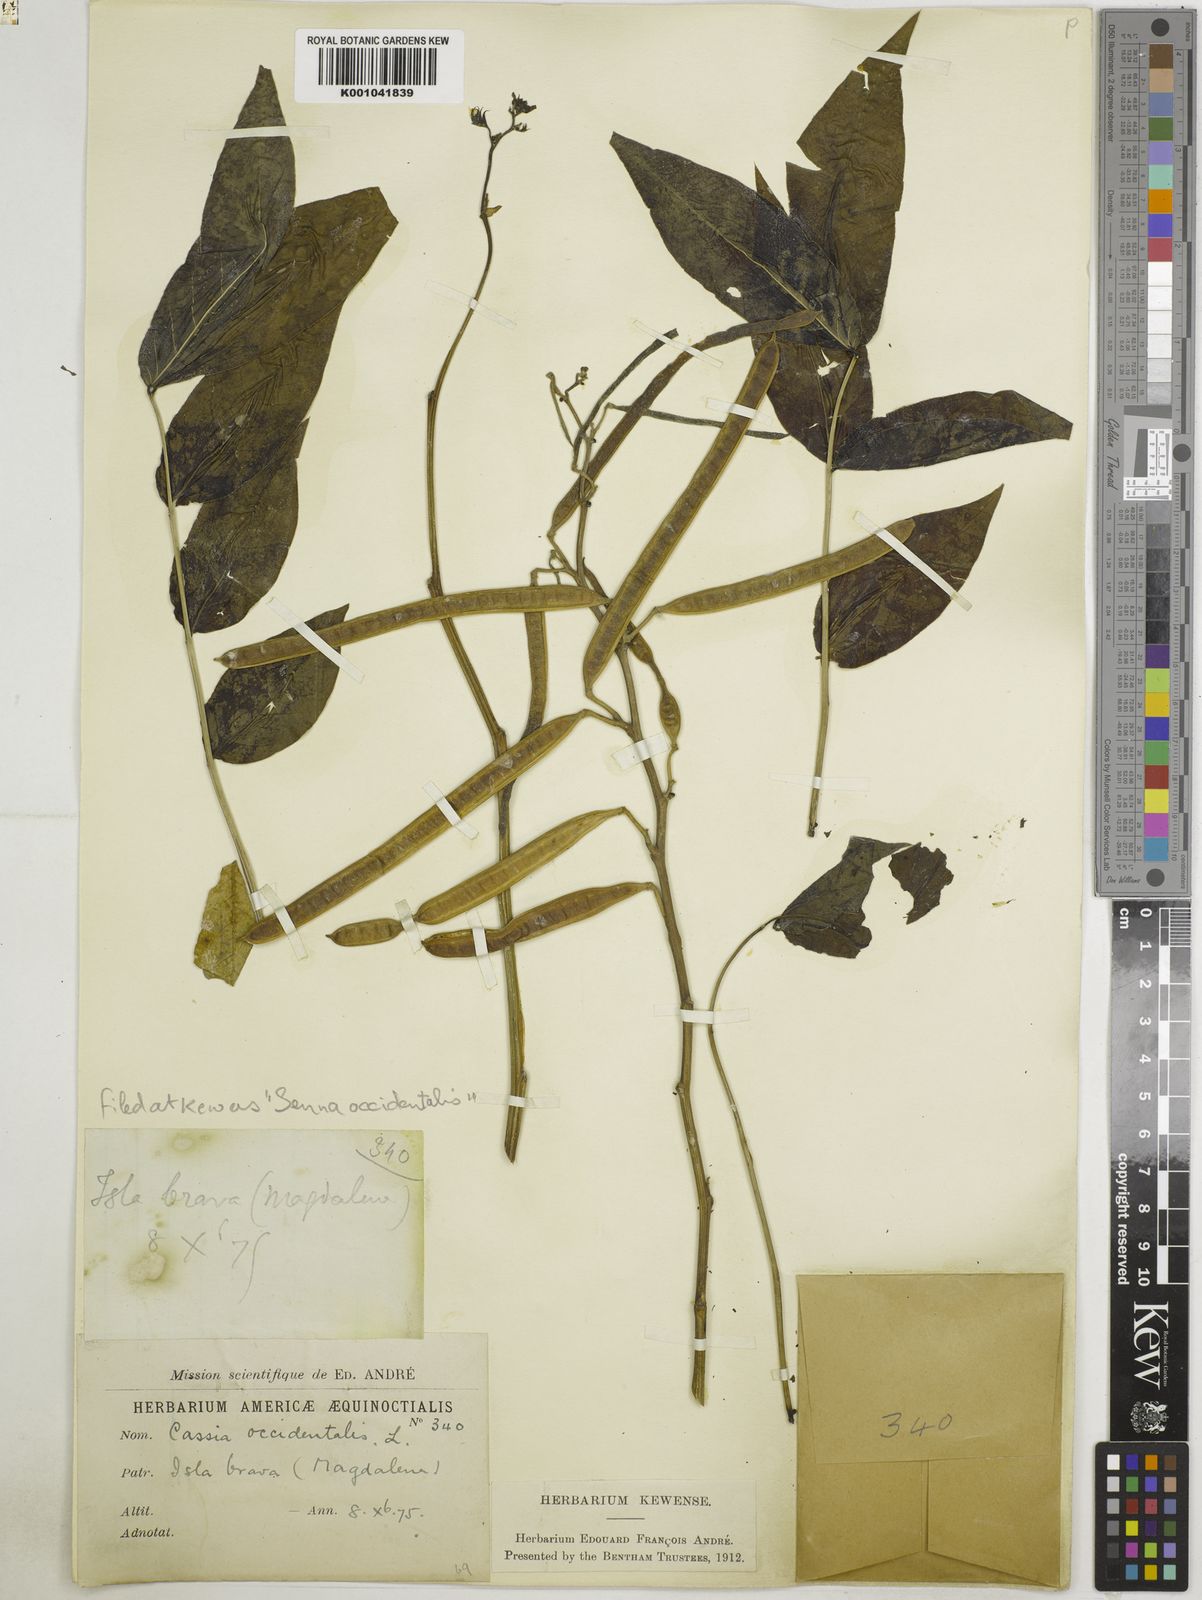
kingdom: Plantae
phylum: Tracheophyta
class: Magnoliopsida
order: Fabales
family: Fabaceae
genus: Senna
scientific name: Senna occidentalis
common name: Septicweed
